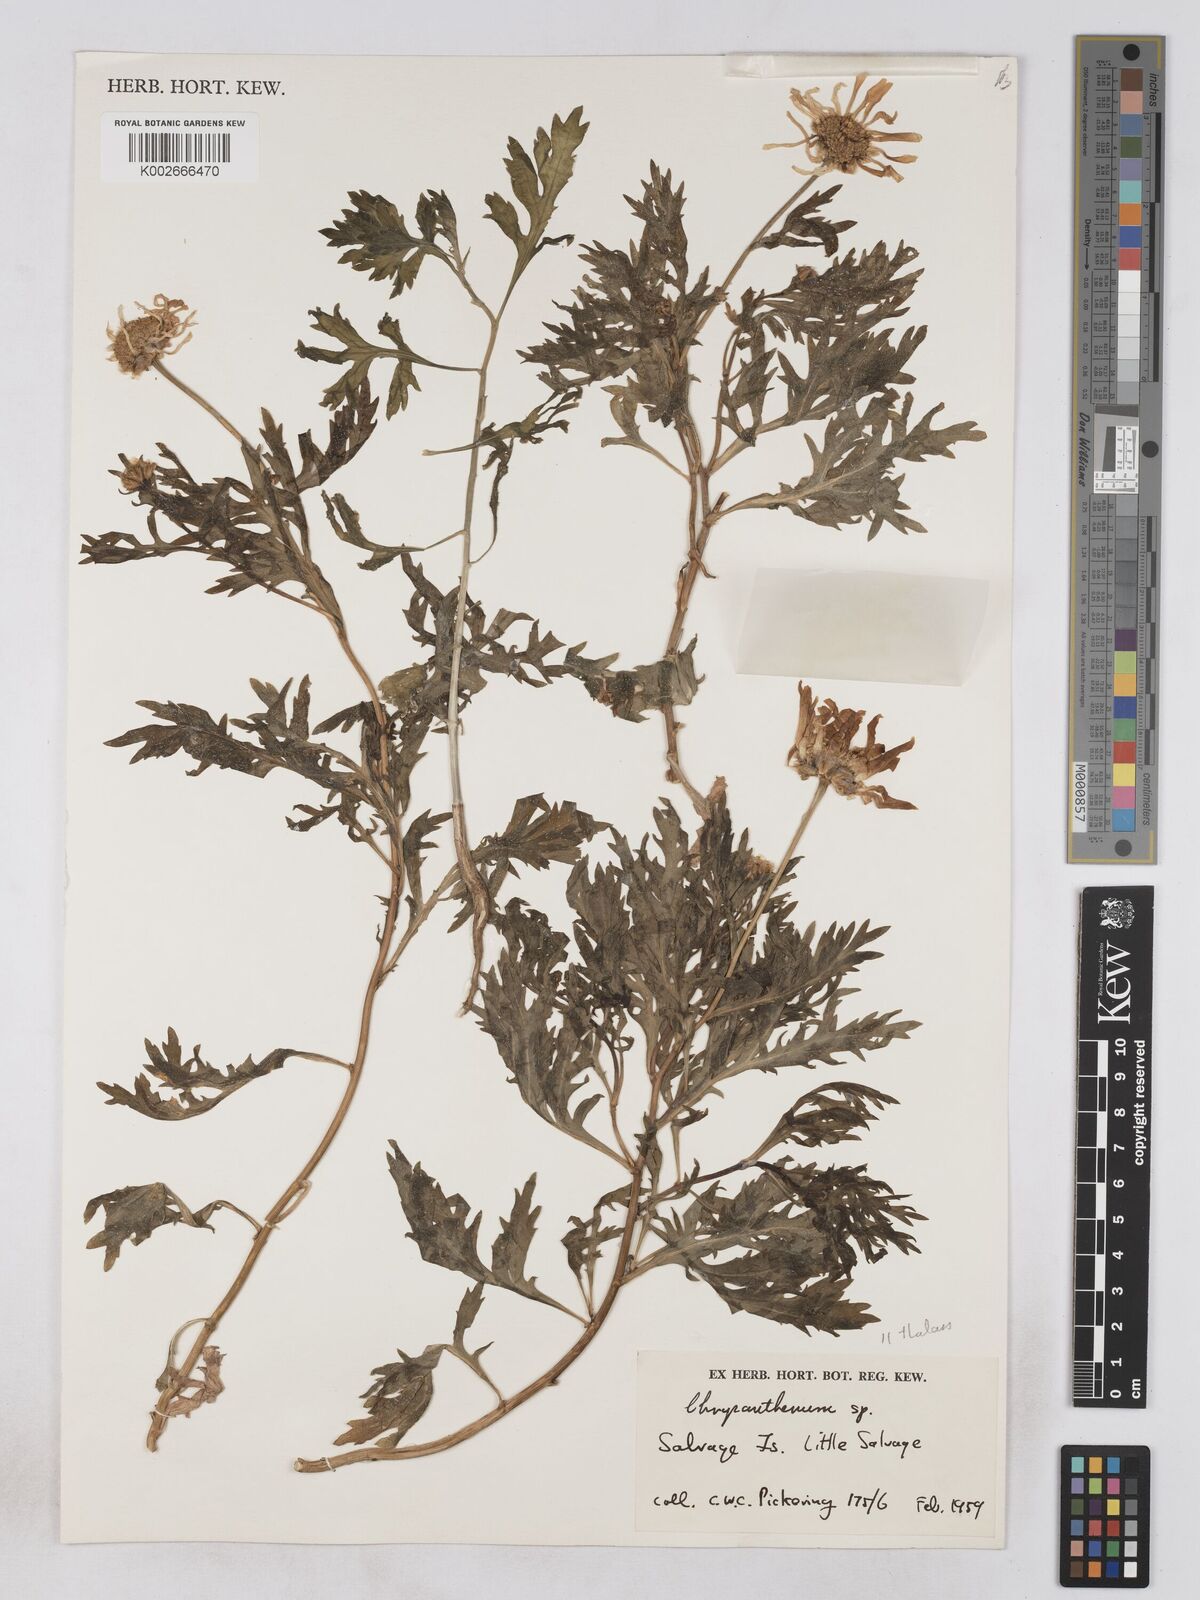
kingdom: Plantae
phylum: Tracheophyta
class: Magnoliopsida
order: Asterales
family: Asteraceae
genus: Argyranthemum
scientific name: Argyranthemum thalassophilum
